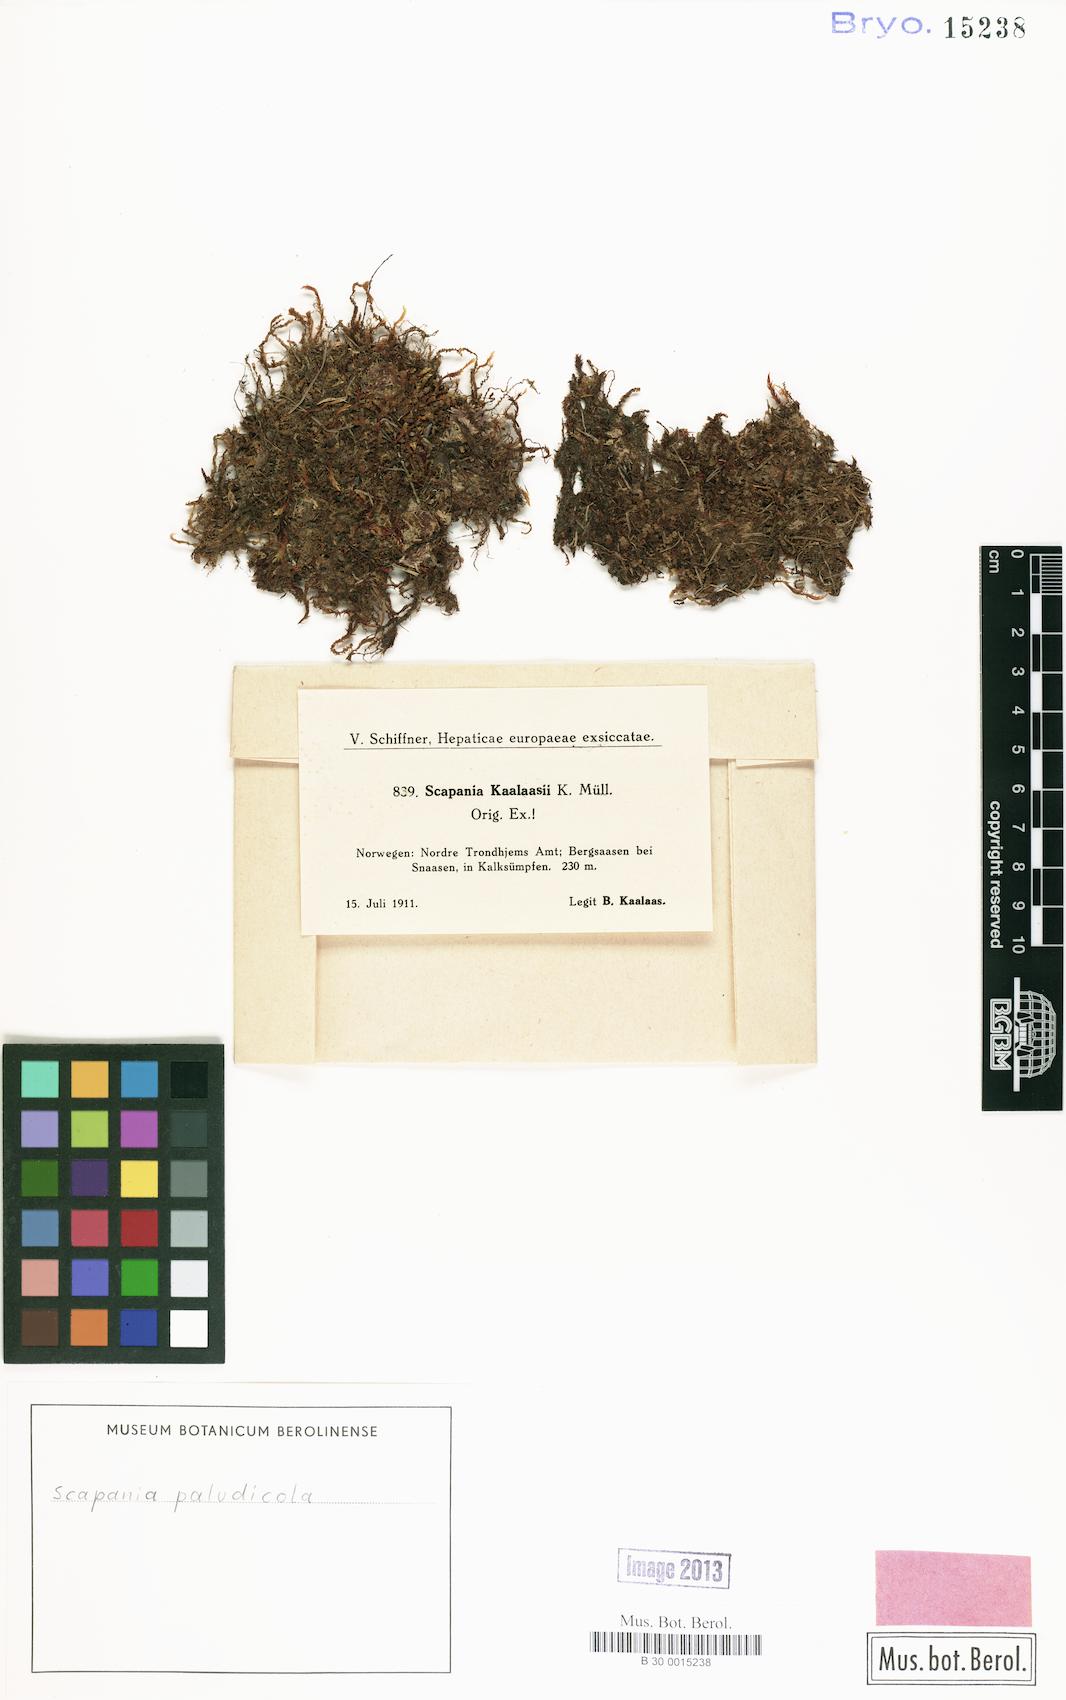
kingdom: Plantae
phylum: Marchantiophyta
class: Jungermanniopsida
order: Jungermanniales
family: Scapaniaceae
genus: Scapania
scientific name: Scapania paludicola
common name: Bog earwort
